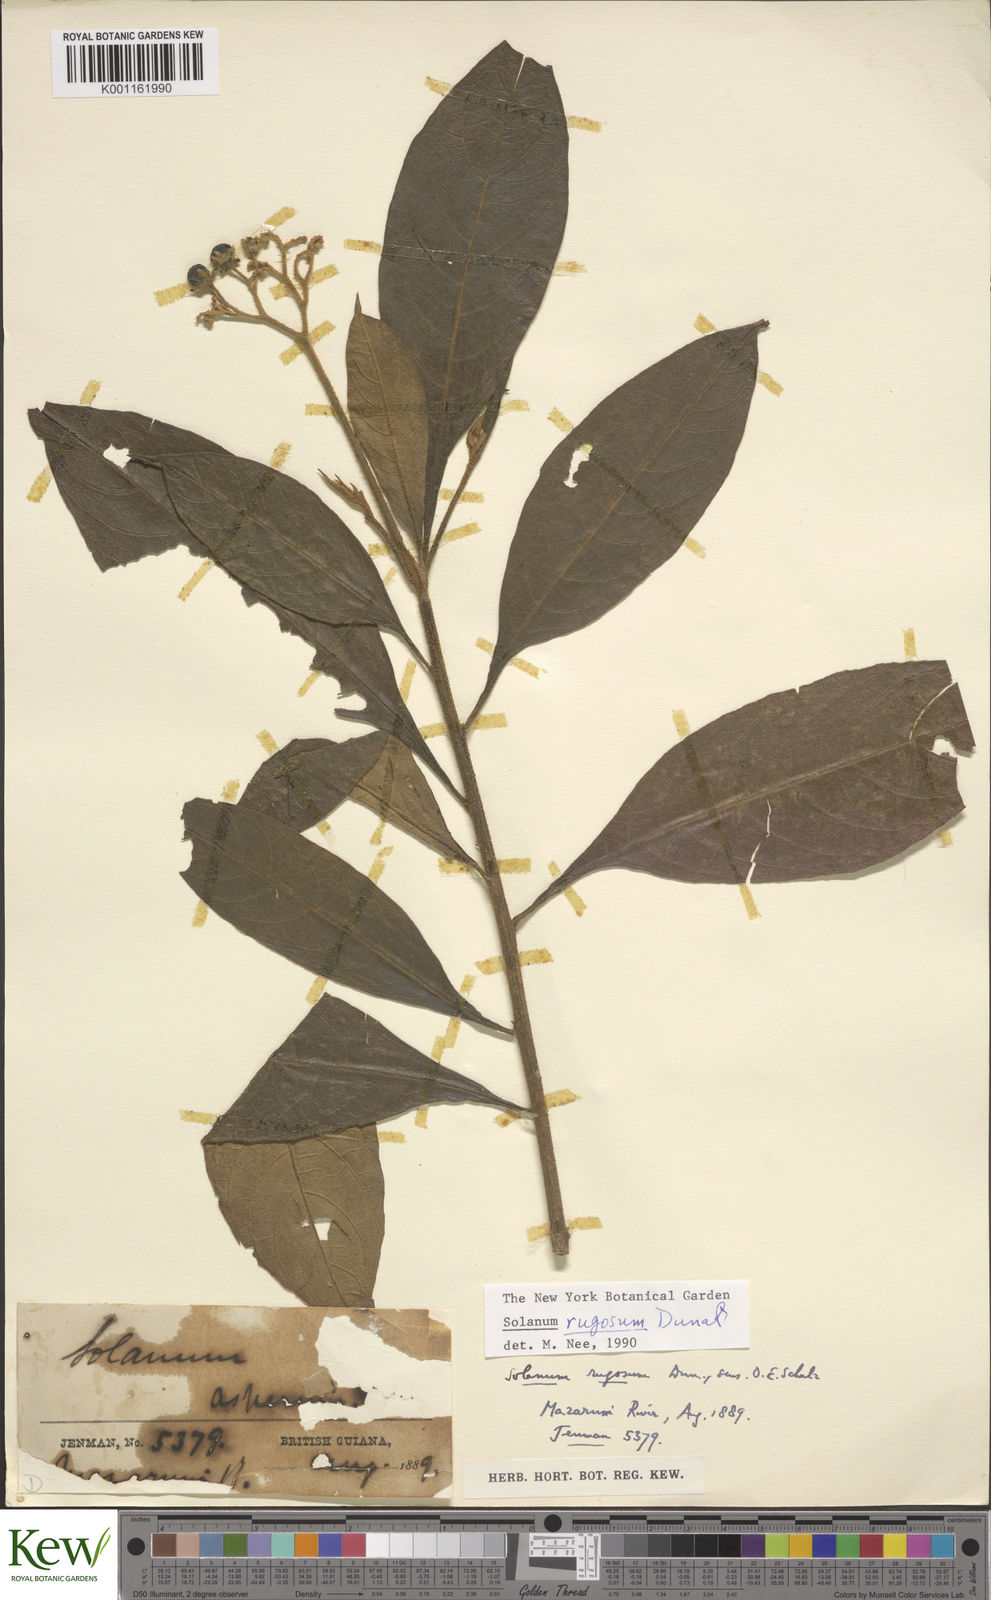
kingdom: Plantae
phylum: Tracheophyta
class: Magnoliopsida
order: Solanales
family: Solanaceae
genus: Solanum
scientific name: Solanum rugosum
